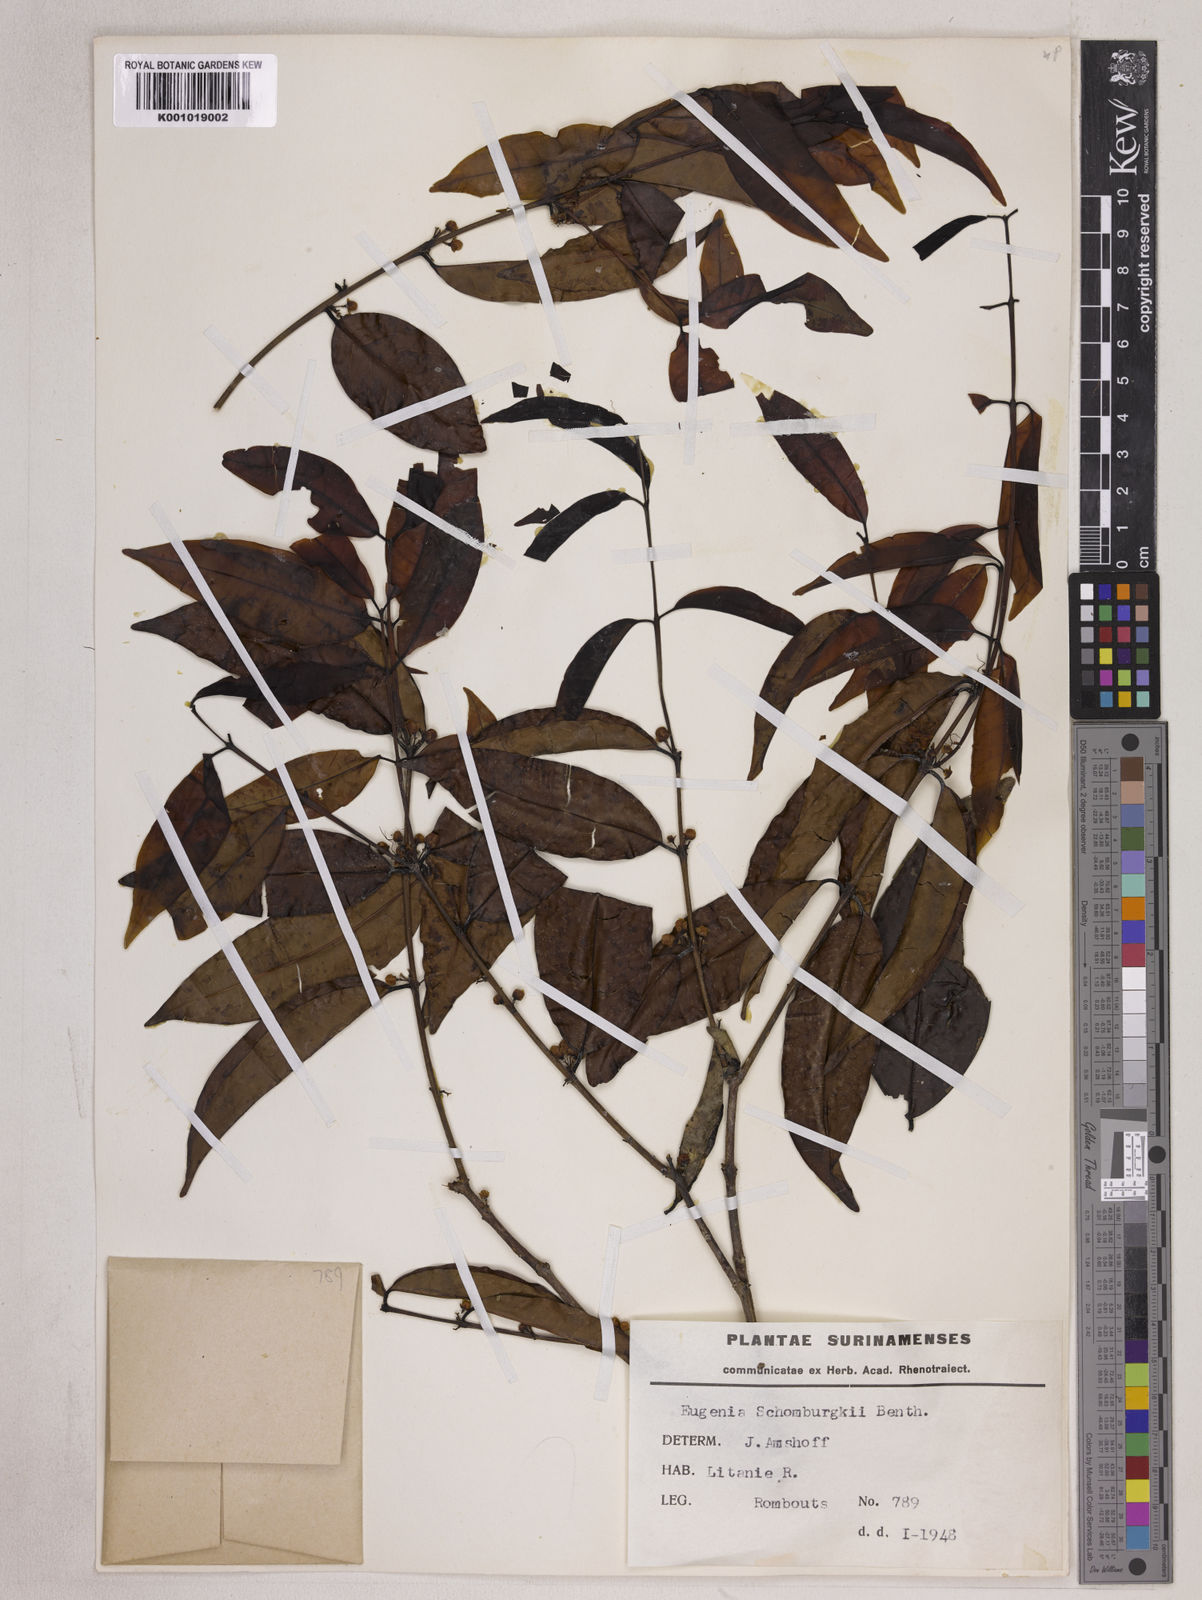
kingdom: Plantae
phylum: Tracheophyta
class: Magnoliopsida
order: Myrtales
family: Myrtaceae
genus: Eugenia
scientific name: Eugenia lambertiana
